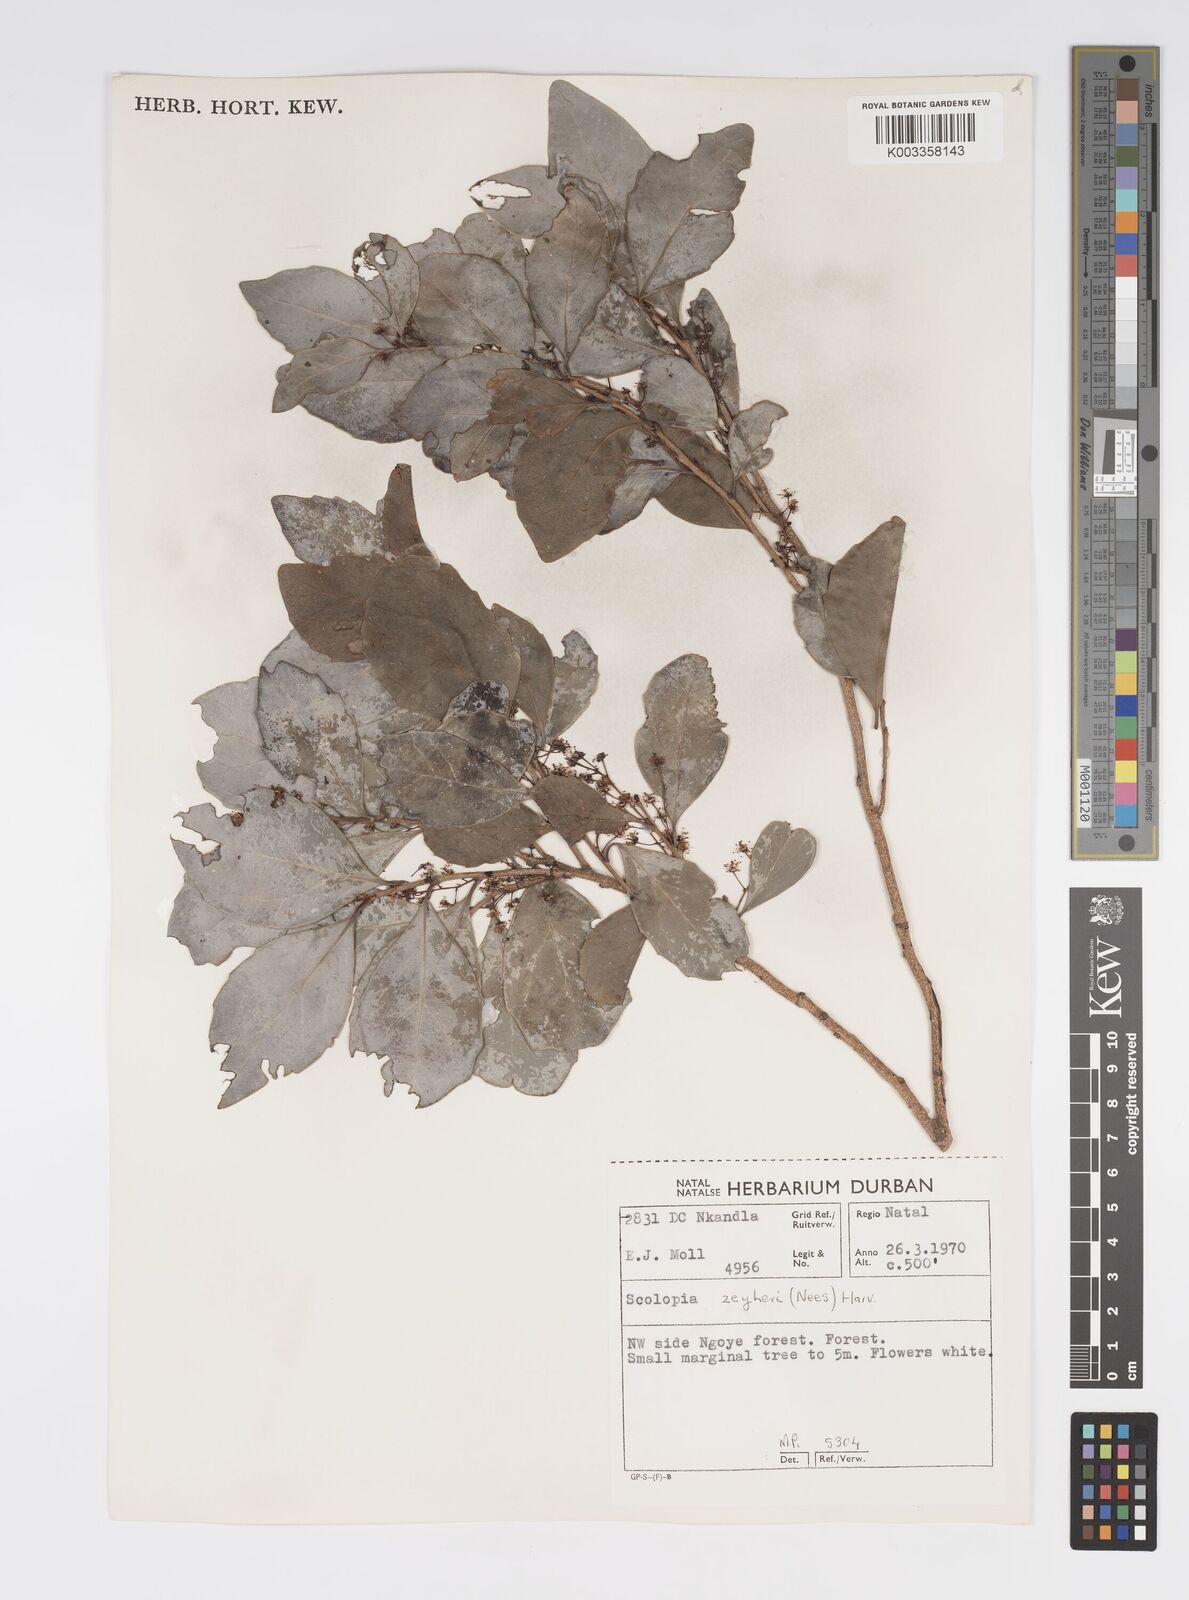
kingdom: Plantae
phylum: Tracheophyta
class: Magnoliopsida
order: Malpighiales
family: Salicaceae
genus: Scolopia
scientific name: Scolopia zeyheri
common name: Thorn pear
